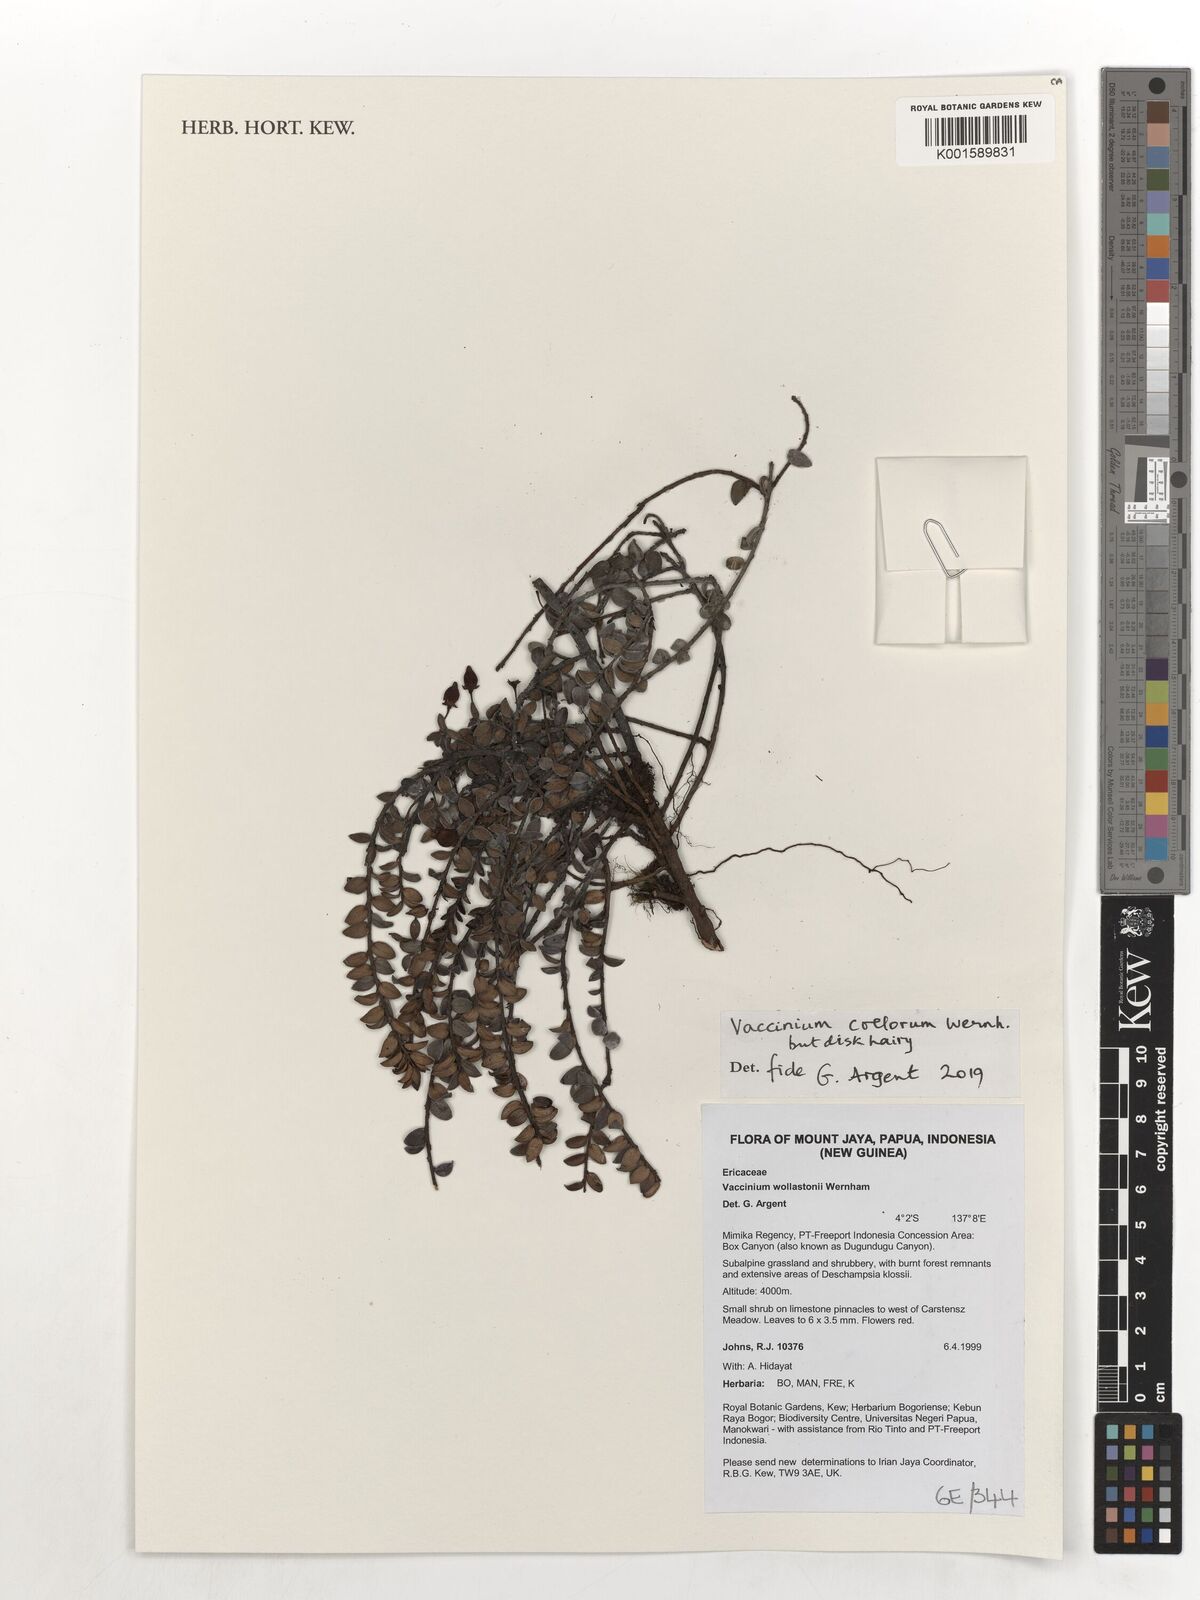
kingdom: Plantae
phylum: Tracheophyta
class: Magnoliopsida
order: Ericales
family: Ericaceae
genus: Vaccinium
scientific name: Vaccinium coelorum
